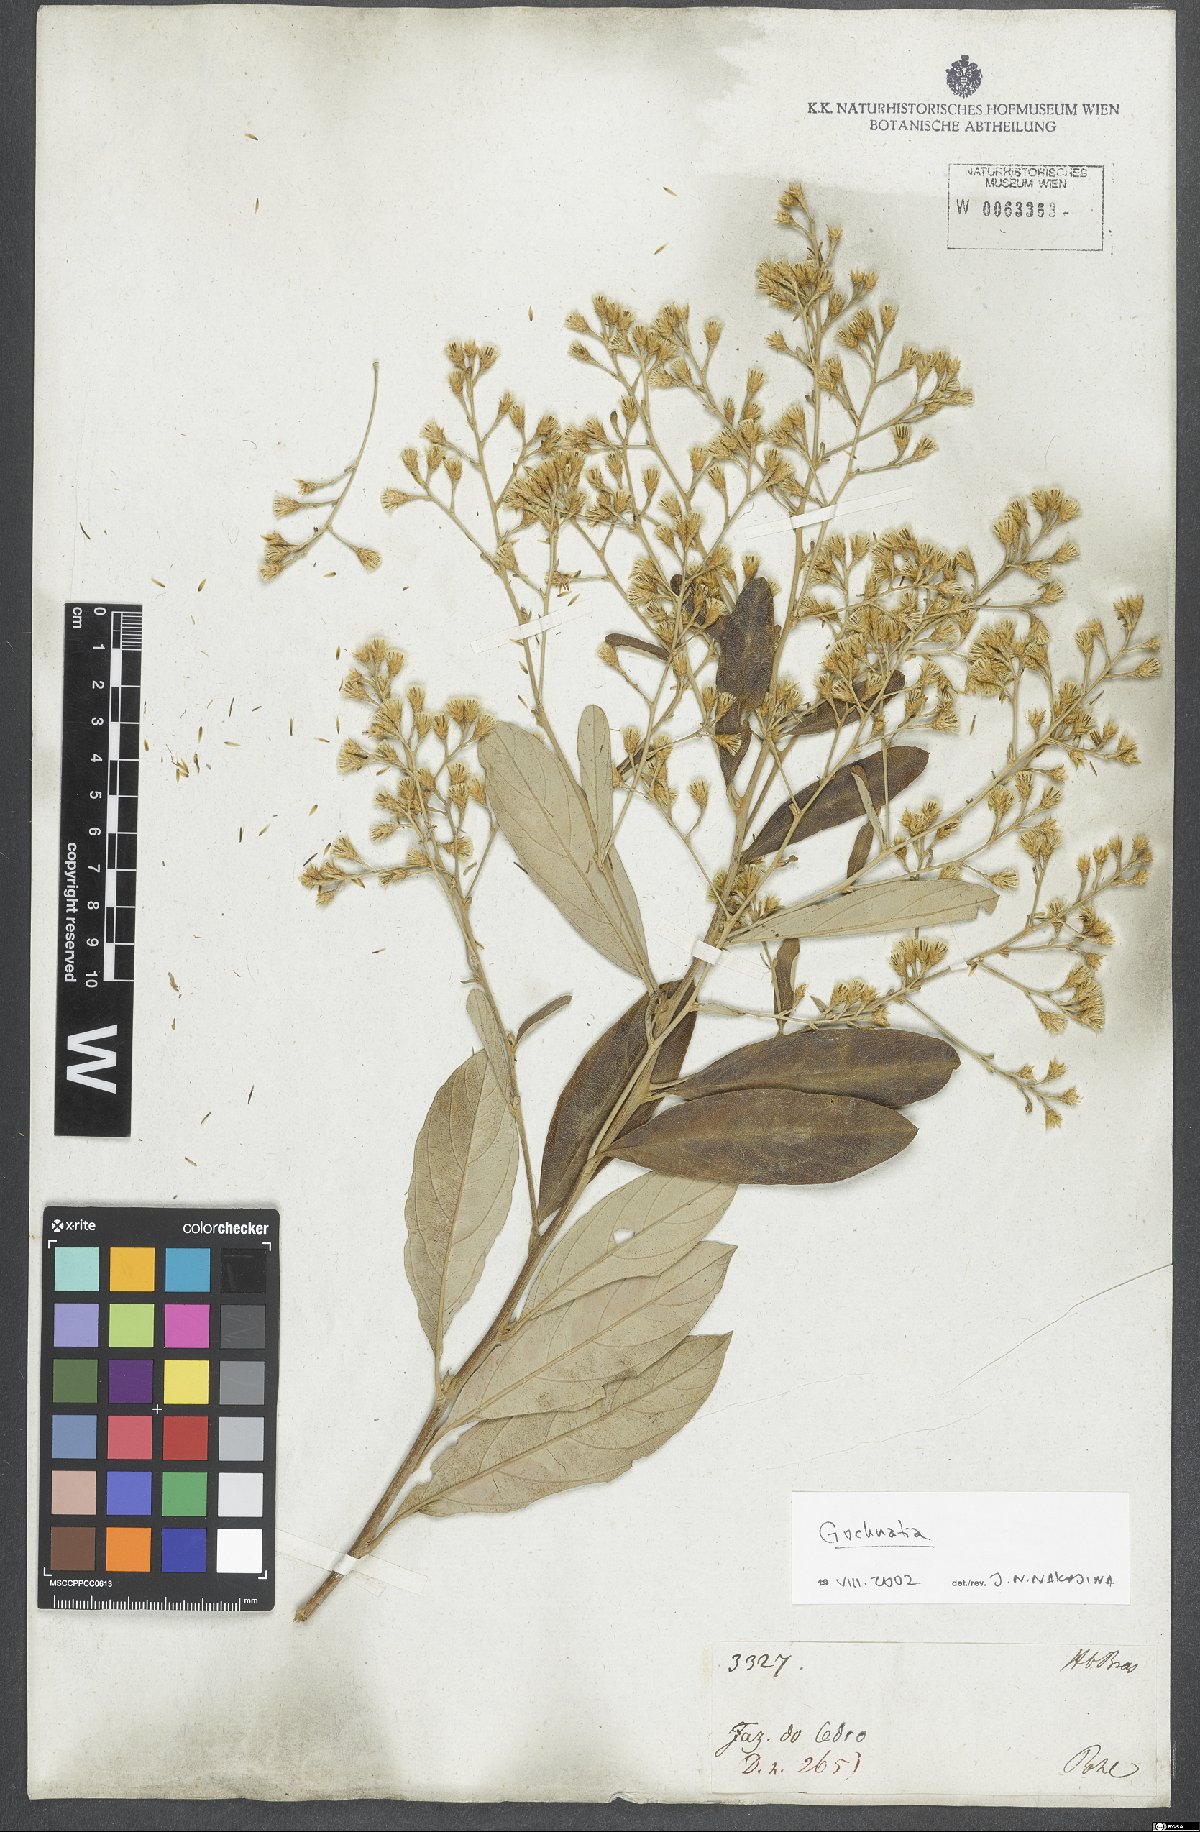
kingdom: Plantae
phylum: Tracheophyta
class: Magnoliopsida
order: Asterales
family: Asteraceae
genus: Gochnatia
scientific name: Gochnatia
